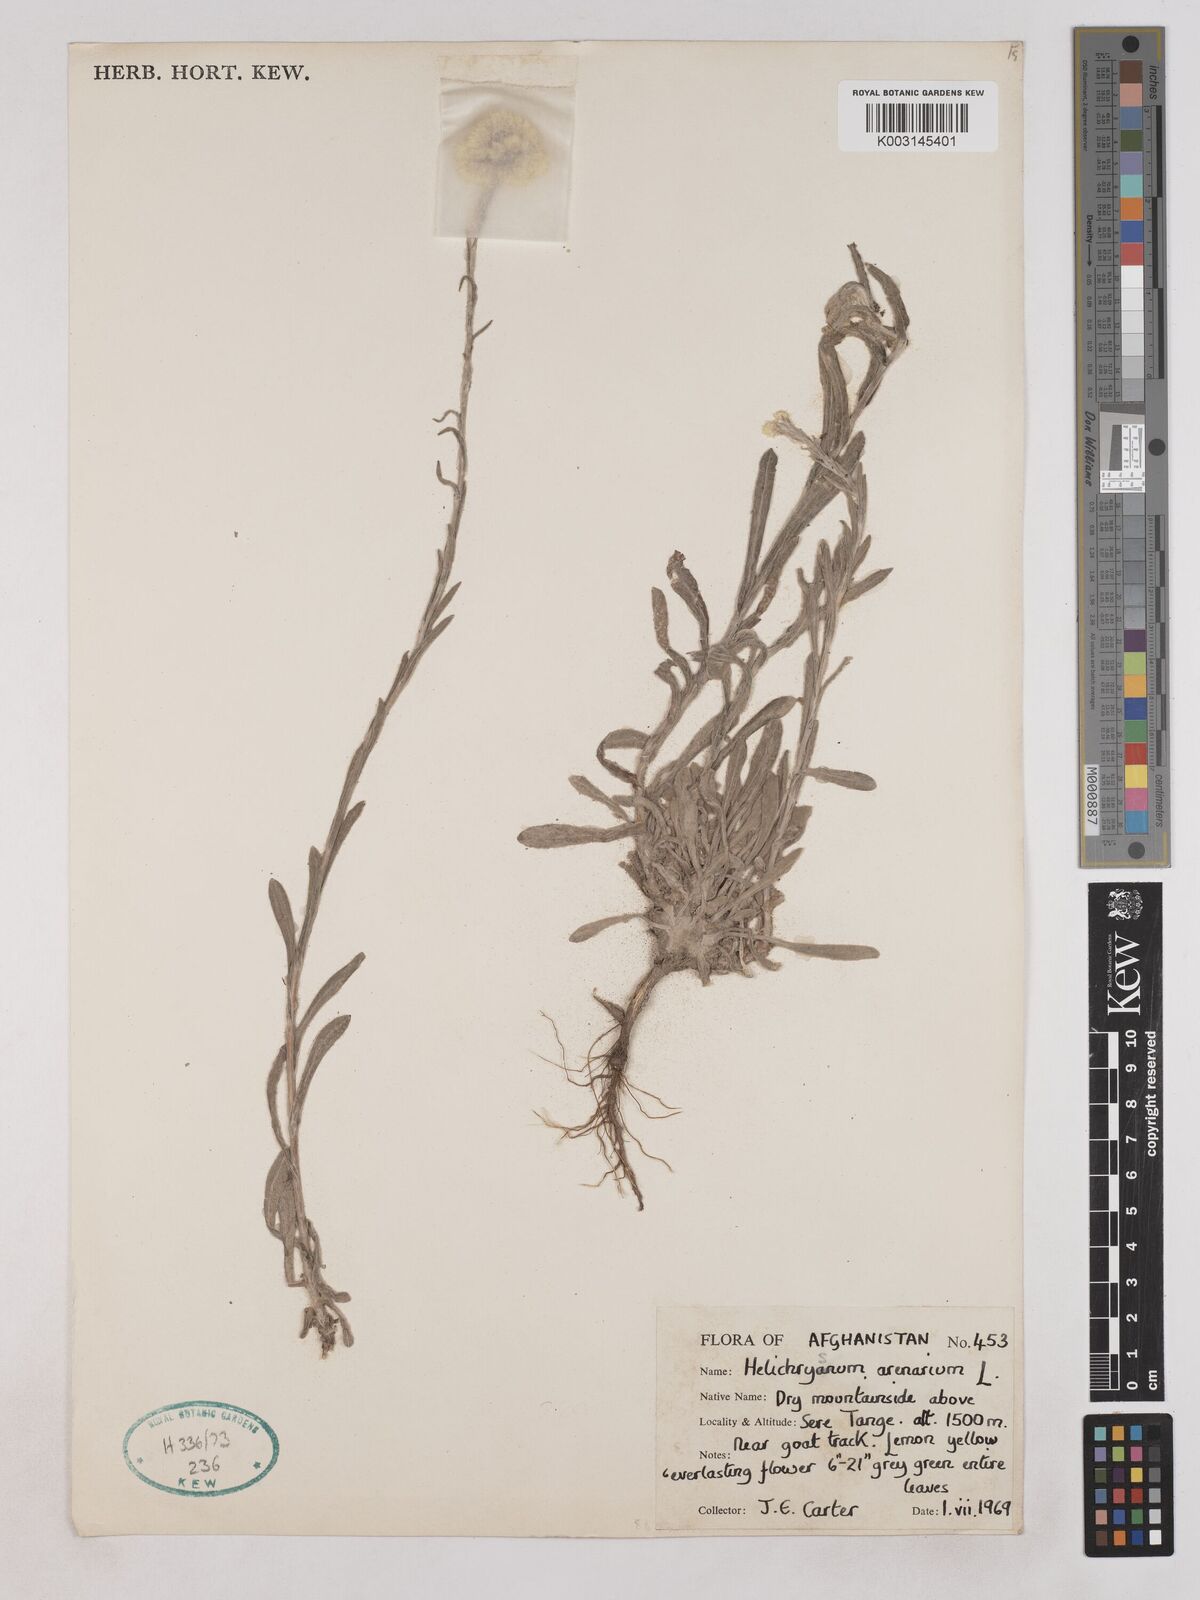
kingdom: Plantae
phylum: Tracheophyta
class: Magnoliopsida
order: Asterales
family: Asteraceae
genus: Helichrysum
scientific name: Helichrysum arenarium
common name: Strawflower
